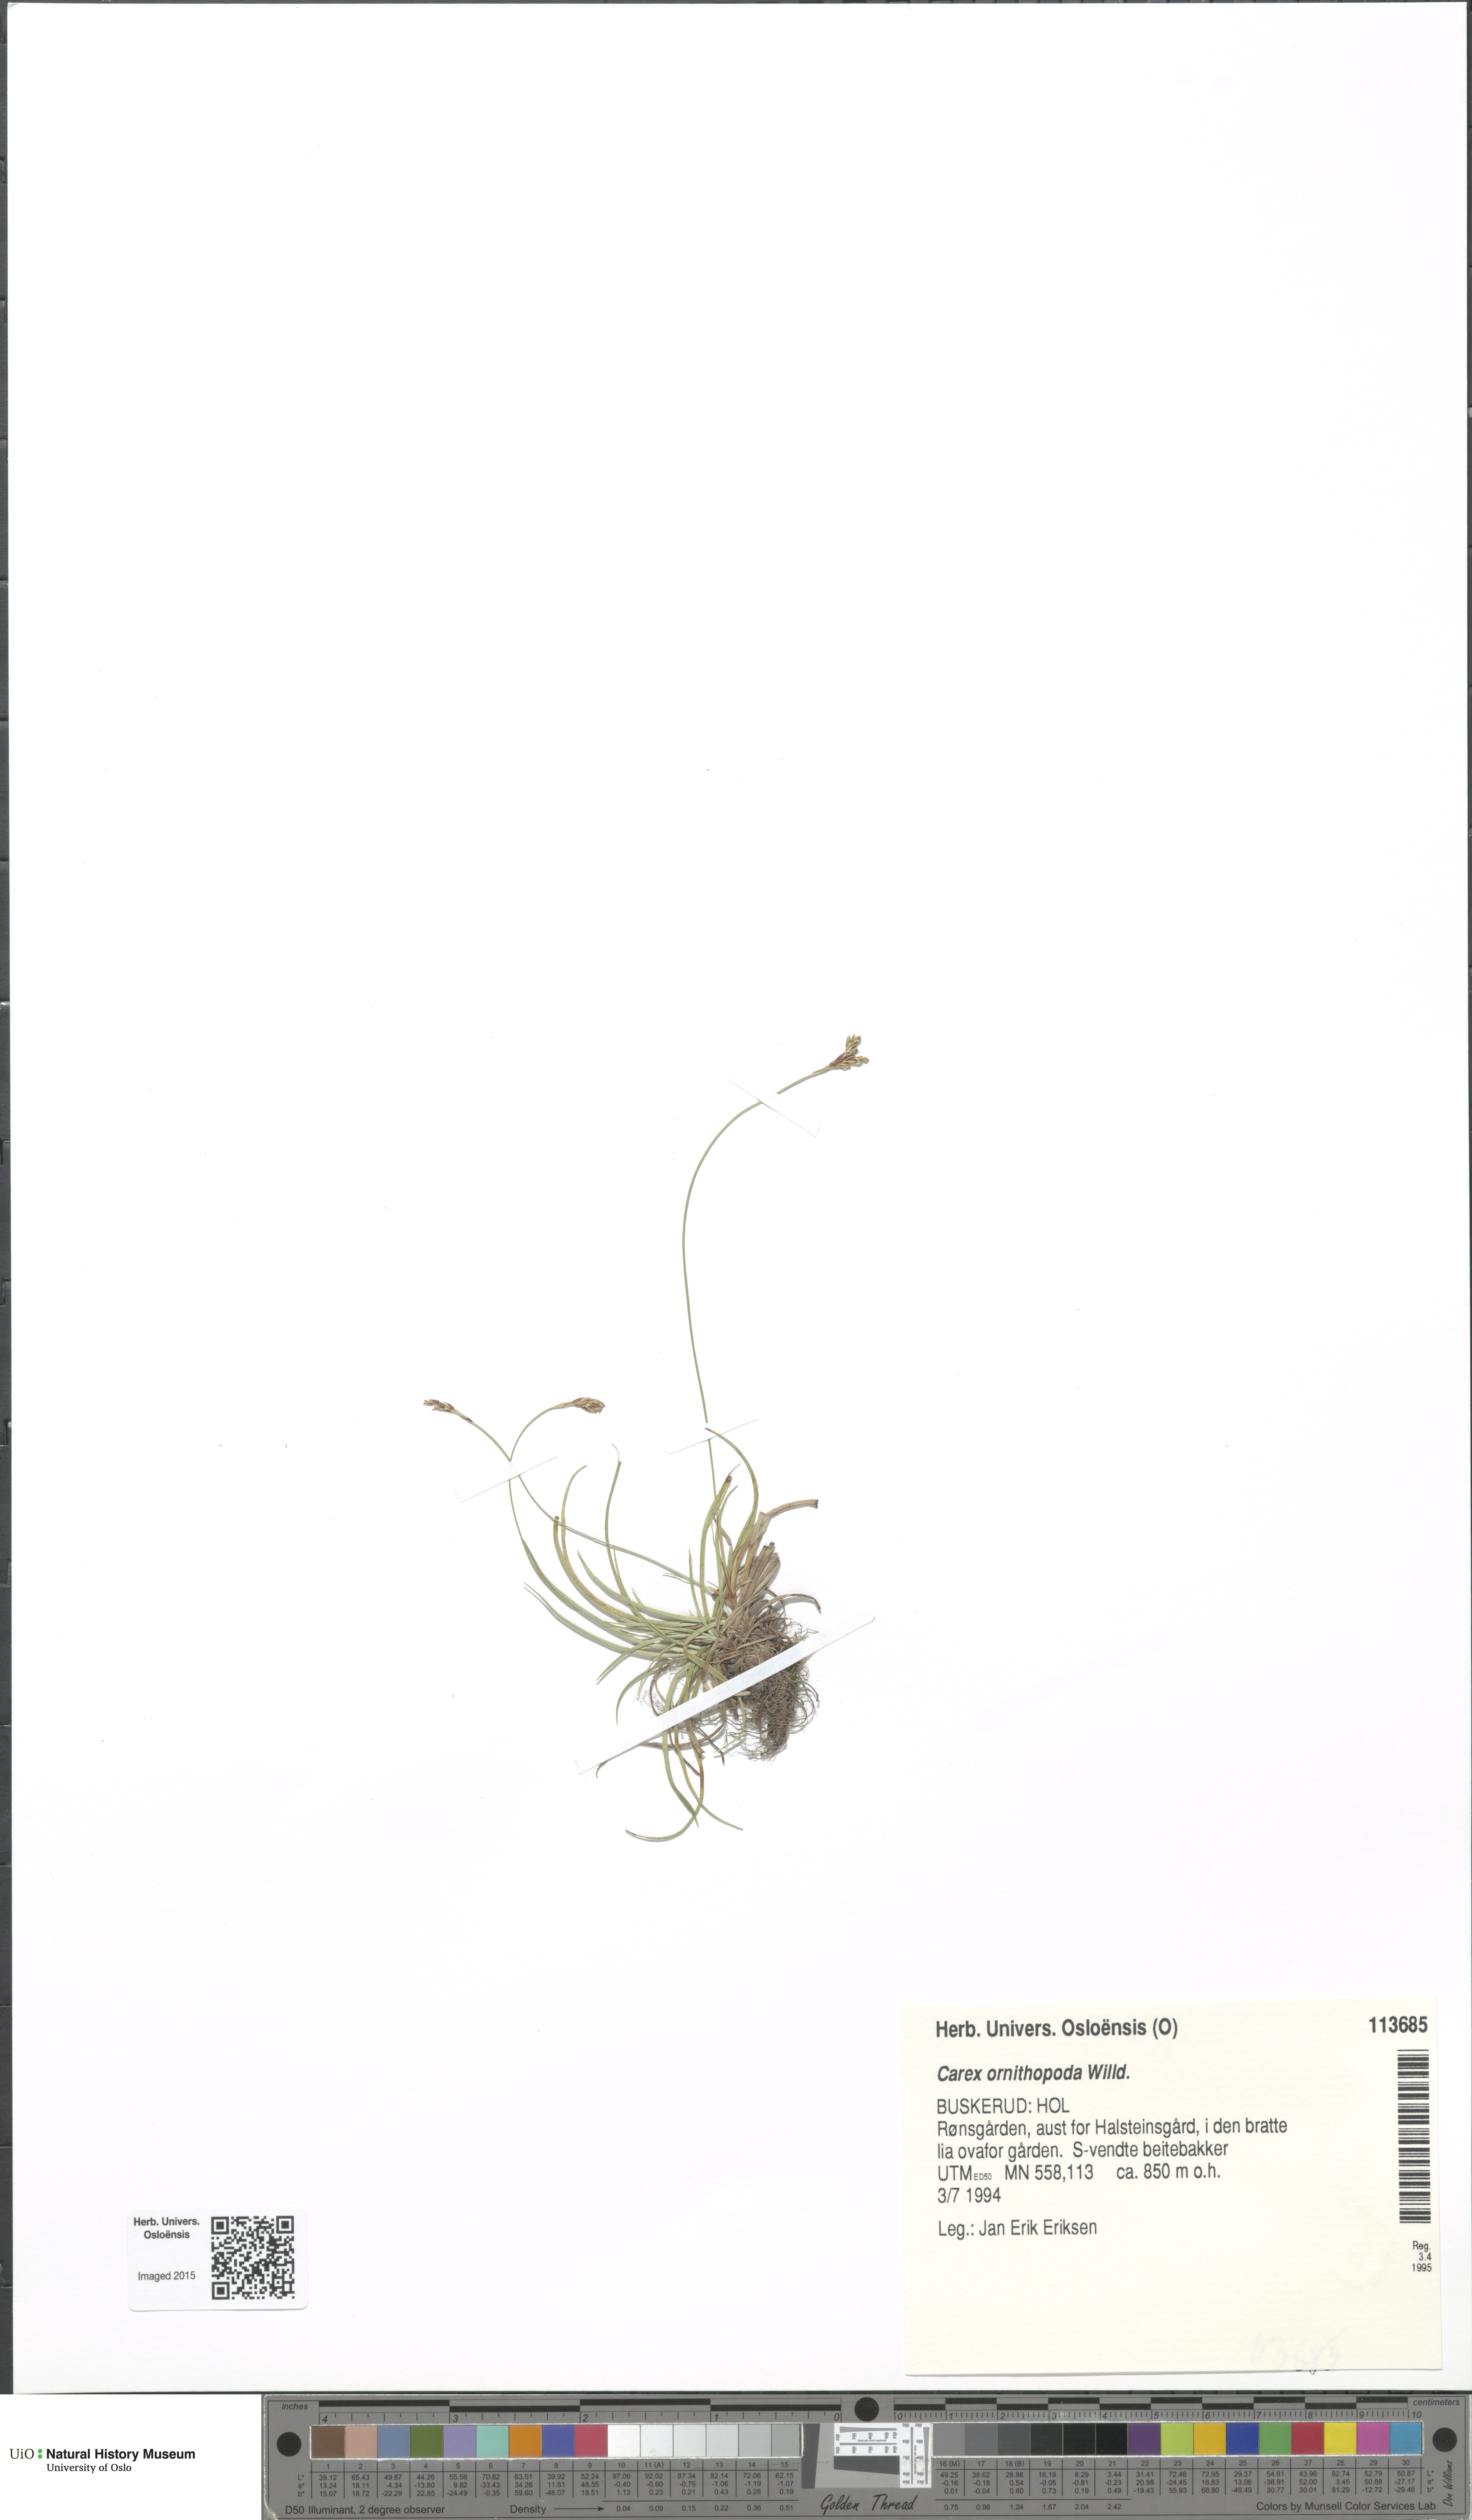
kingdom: Plantae
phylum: Tracheophyta
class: Liliopsida
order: Poales
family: Cyperaceae
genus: Carex
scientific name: Carex ornithopoda
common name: Bird's-foot sedge
